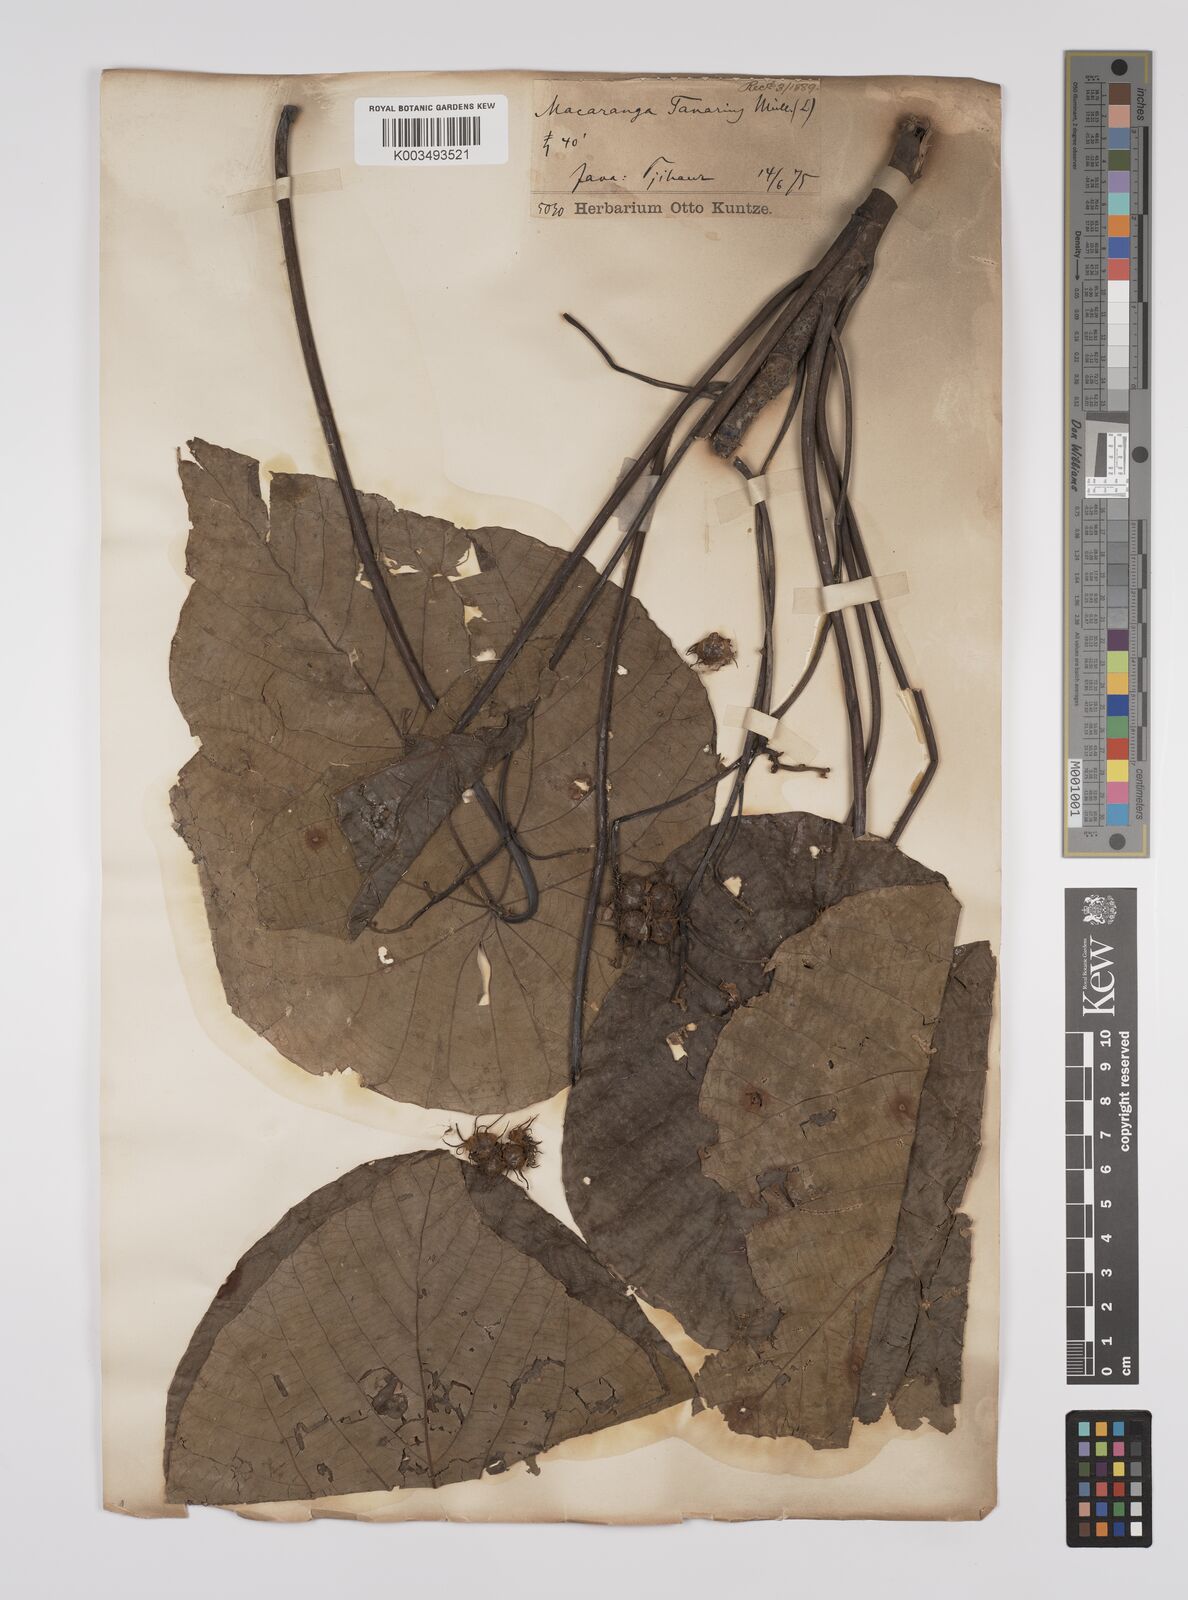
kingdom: Plantae
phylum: Tracheophyta
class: Magnoliopsida
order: Malpighiales
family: Euphorbiaceae
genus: Macaranga
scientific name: Macaranga tanarius
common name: Parasol leaf tree
